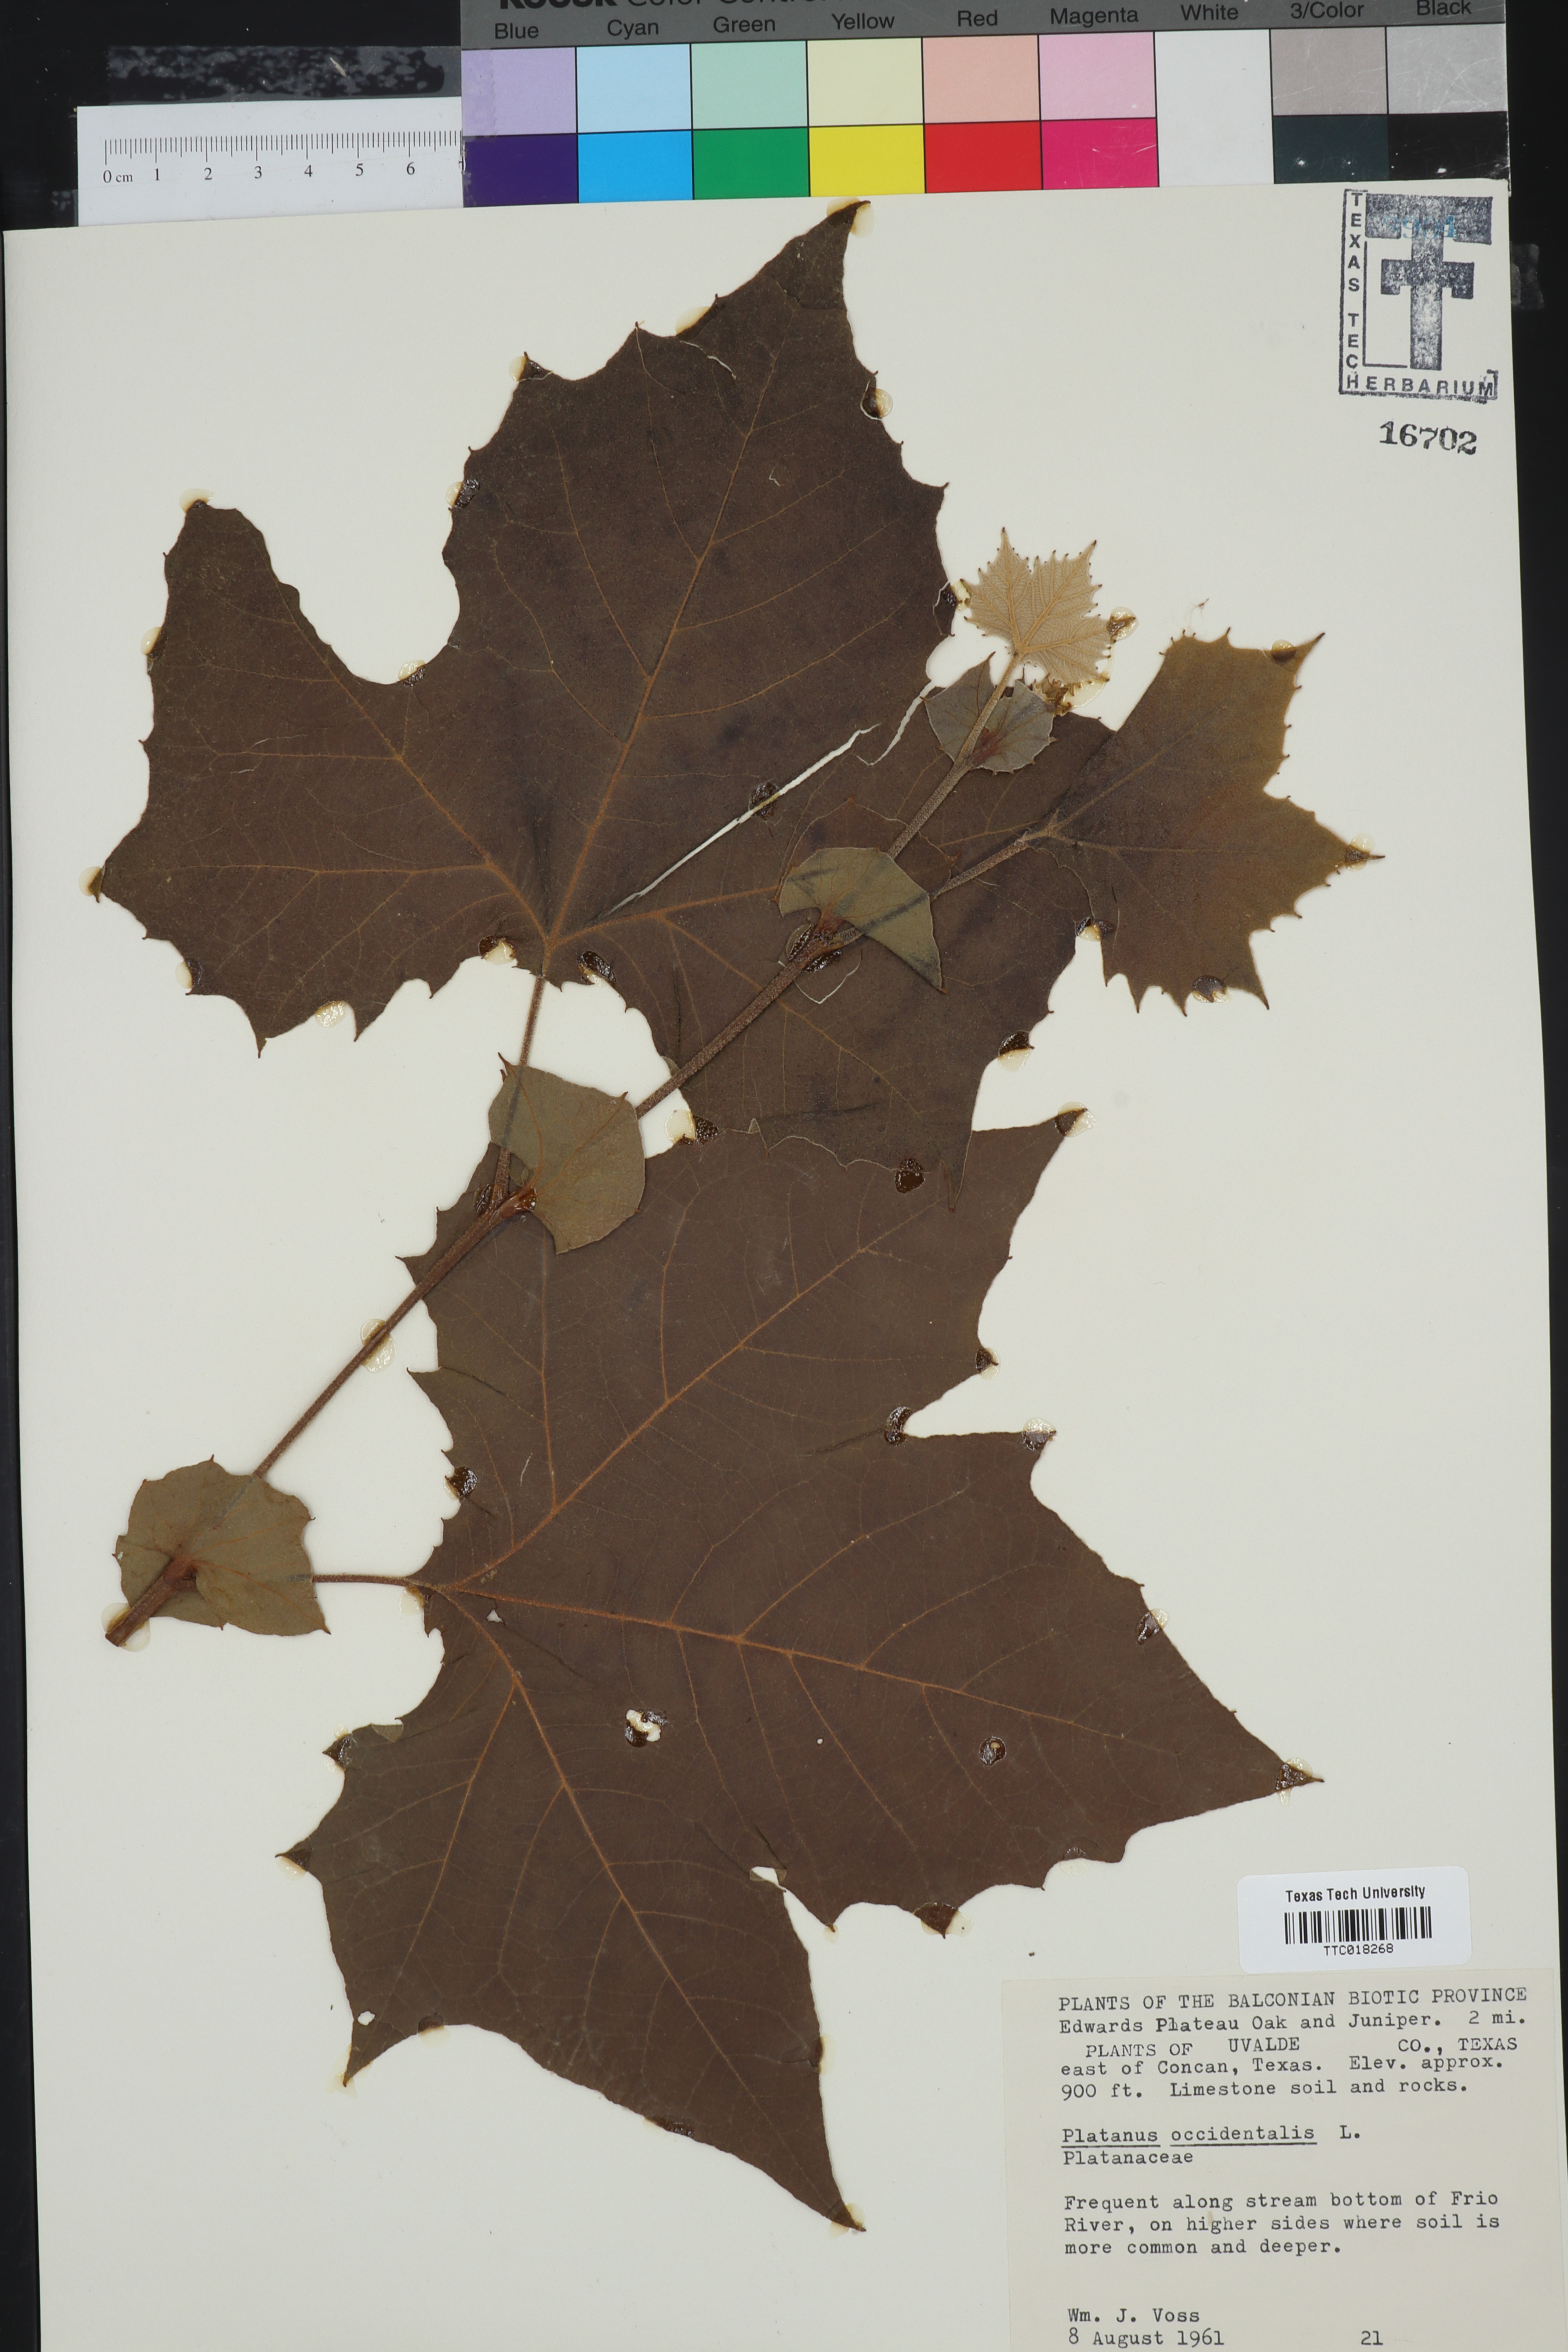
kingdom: Plantae
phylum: Tracheophyta
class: Magnoliopsida
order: Proteales
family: Platanaceae
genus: Platanus
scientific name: Platanus occidentalis
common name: American sycamore
